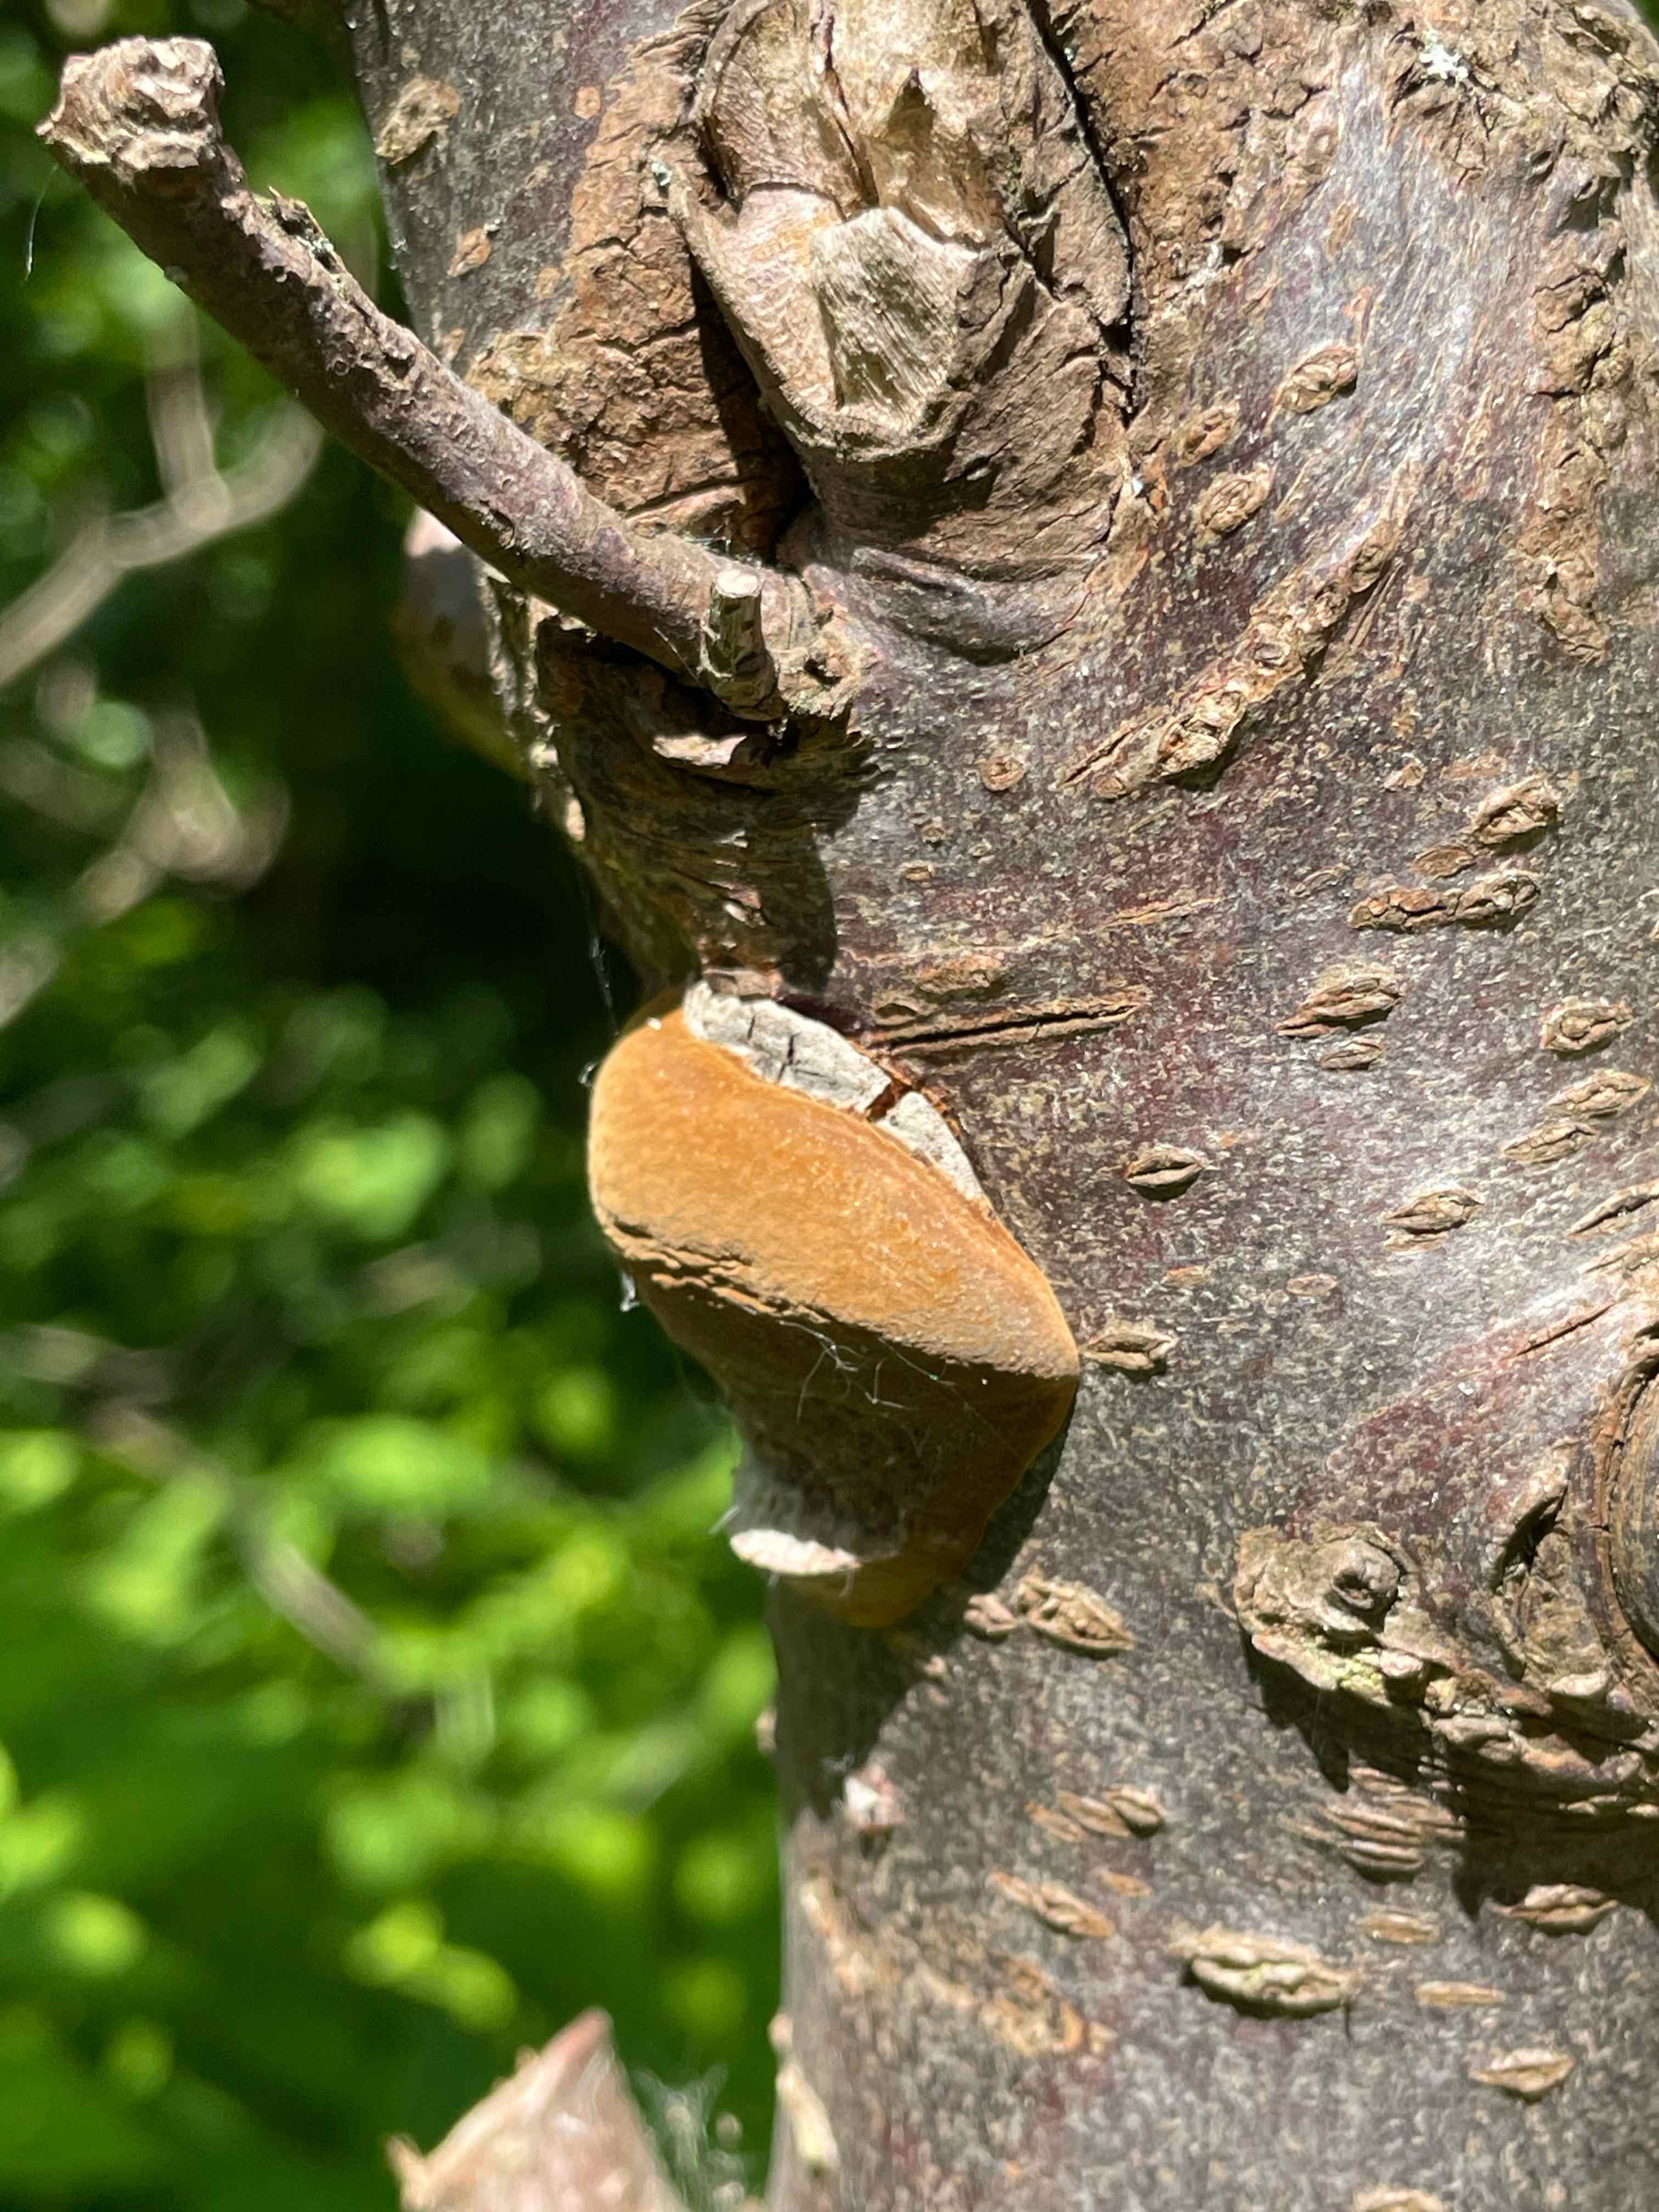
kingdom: Fungi
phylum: Basidiomycota
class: Agaricomycetes
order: Hymenochaetales
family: Hymenochaetaceae
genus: Phellinus
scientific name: Phellinus pomaceus
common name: blomme-ildporesvamp
